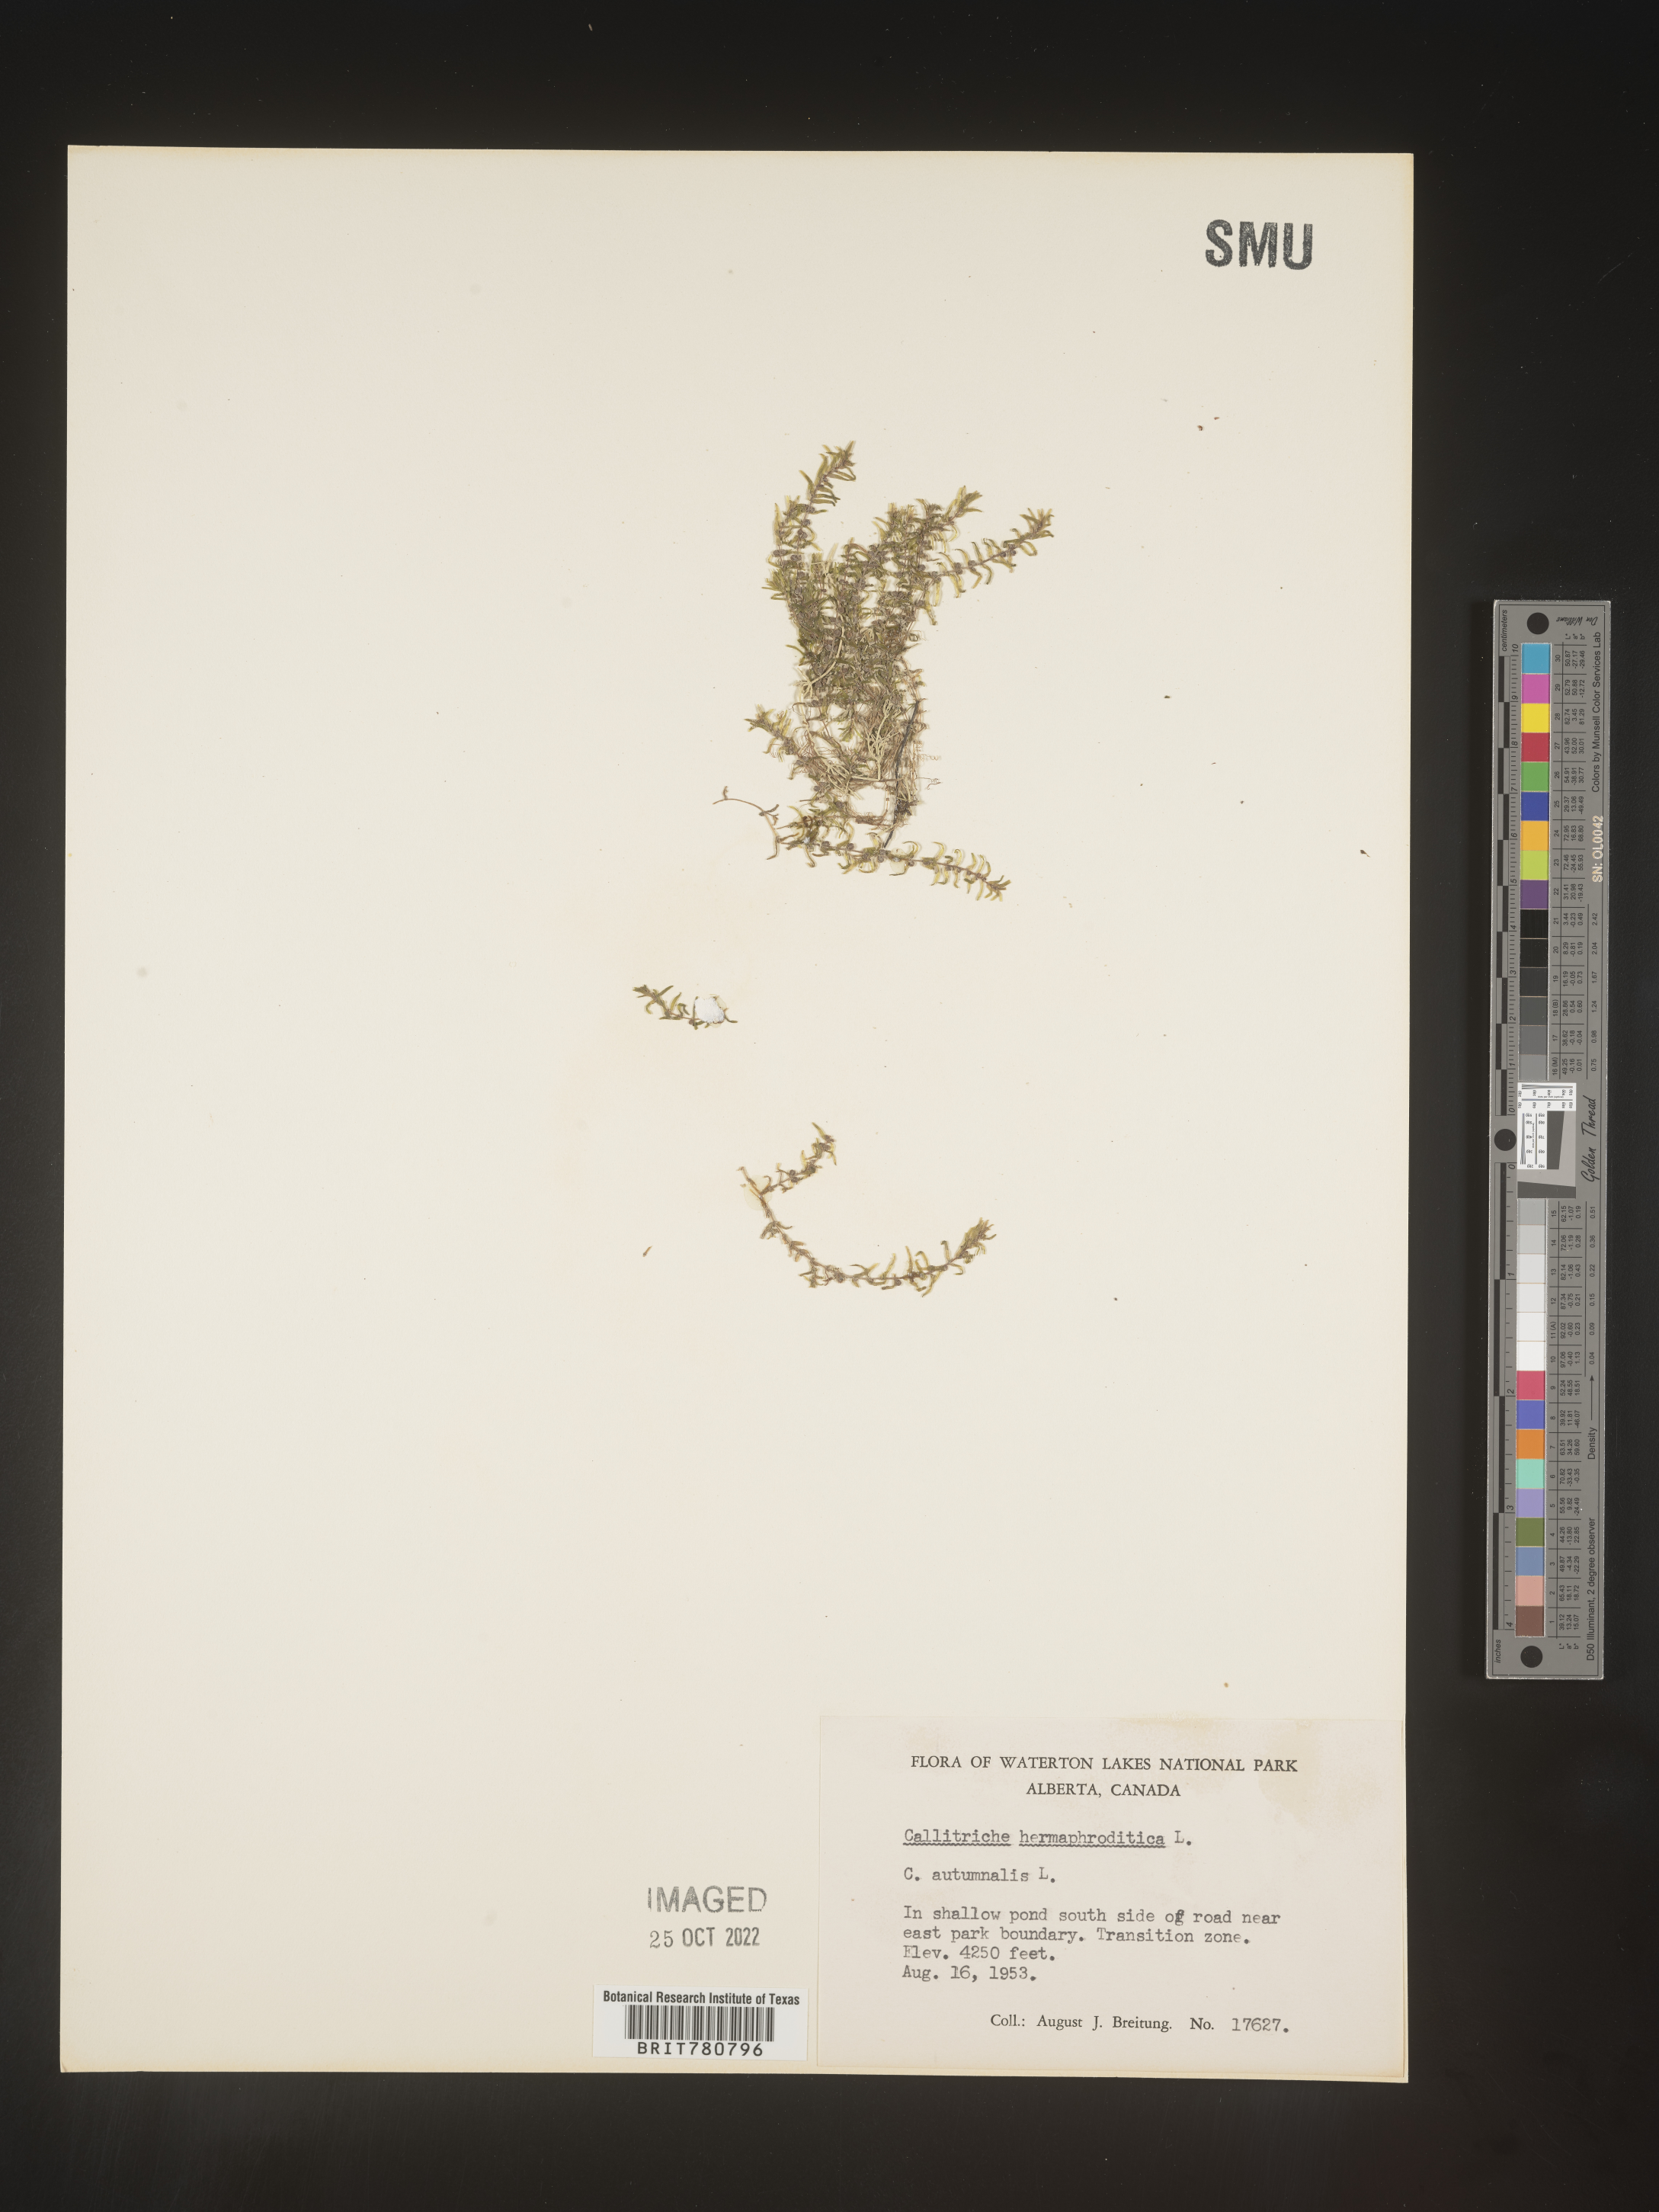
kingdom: Plantae
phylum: Tracheophyta
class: Magnoliopsida
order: Lamiales
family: Plantaginaceae
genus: Callitriche
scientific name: Callitriche
